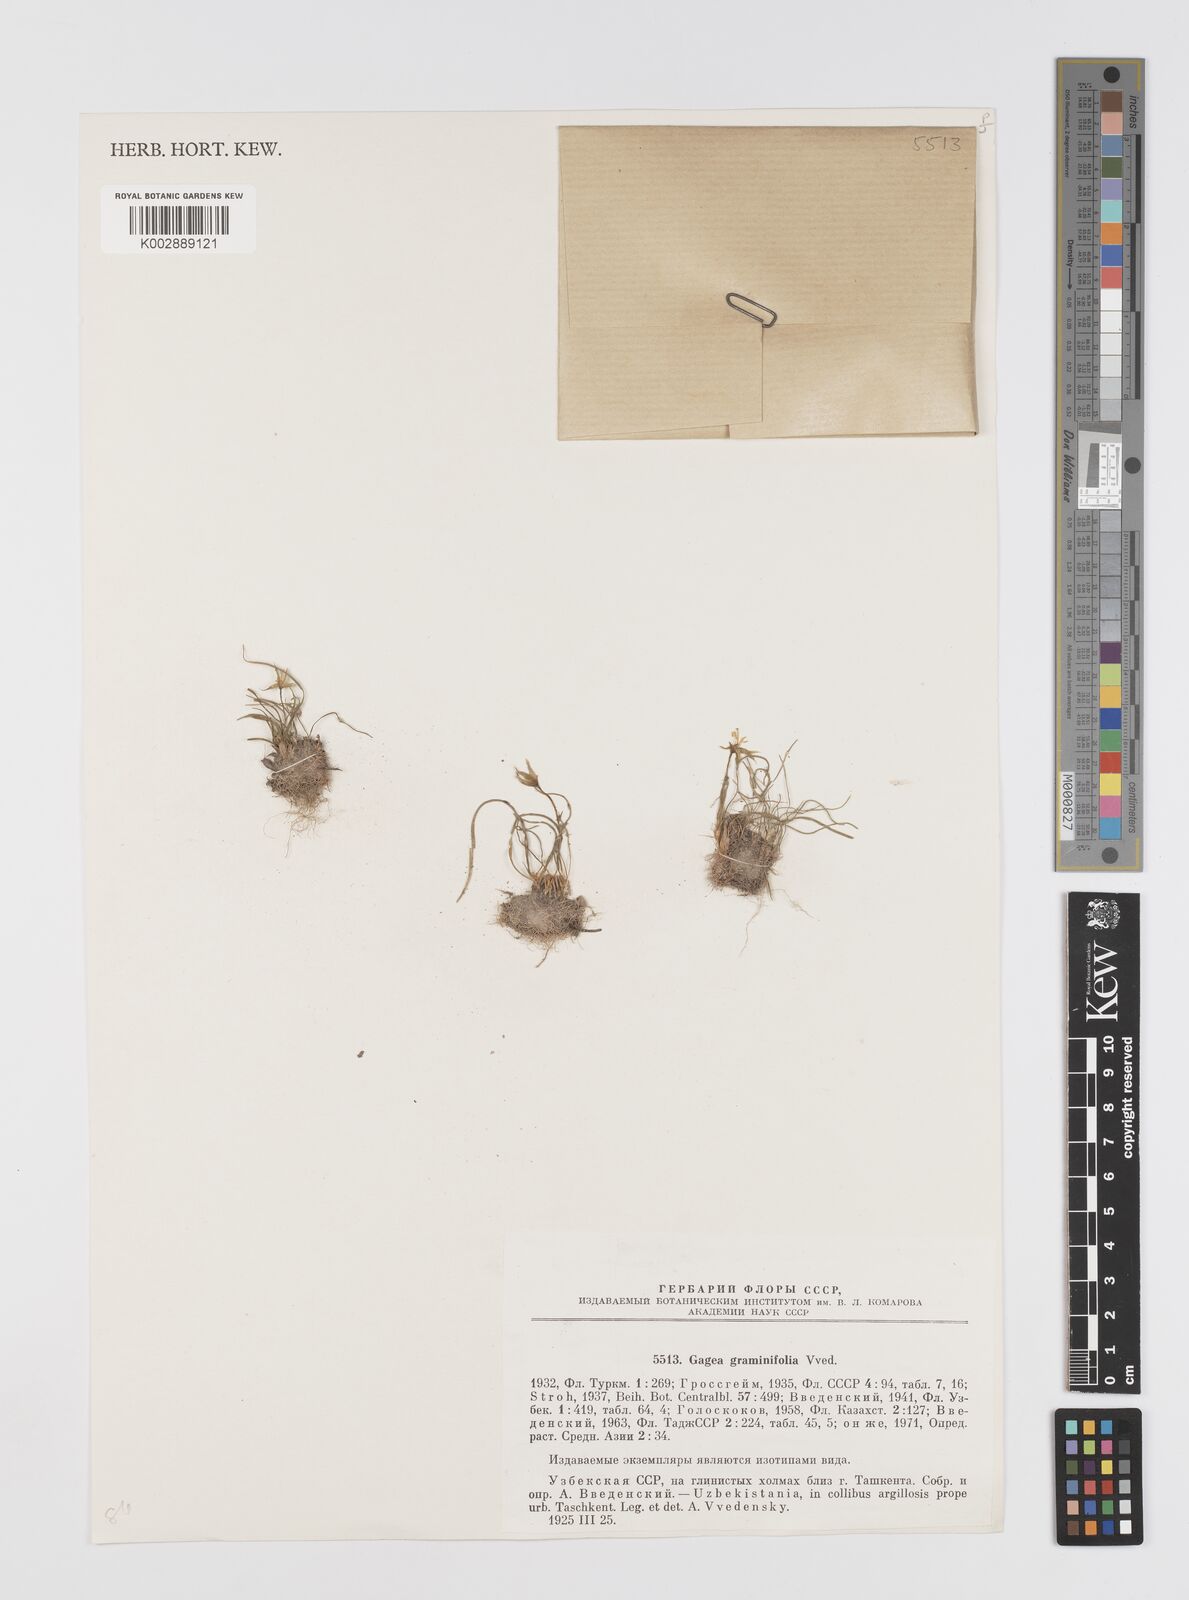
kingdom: Plantae
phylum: Tracheophyta
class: Liliopsida
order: Liliales
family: Liliaceae
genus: Gagea
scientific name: Gagea graminifolia
